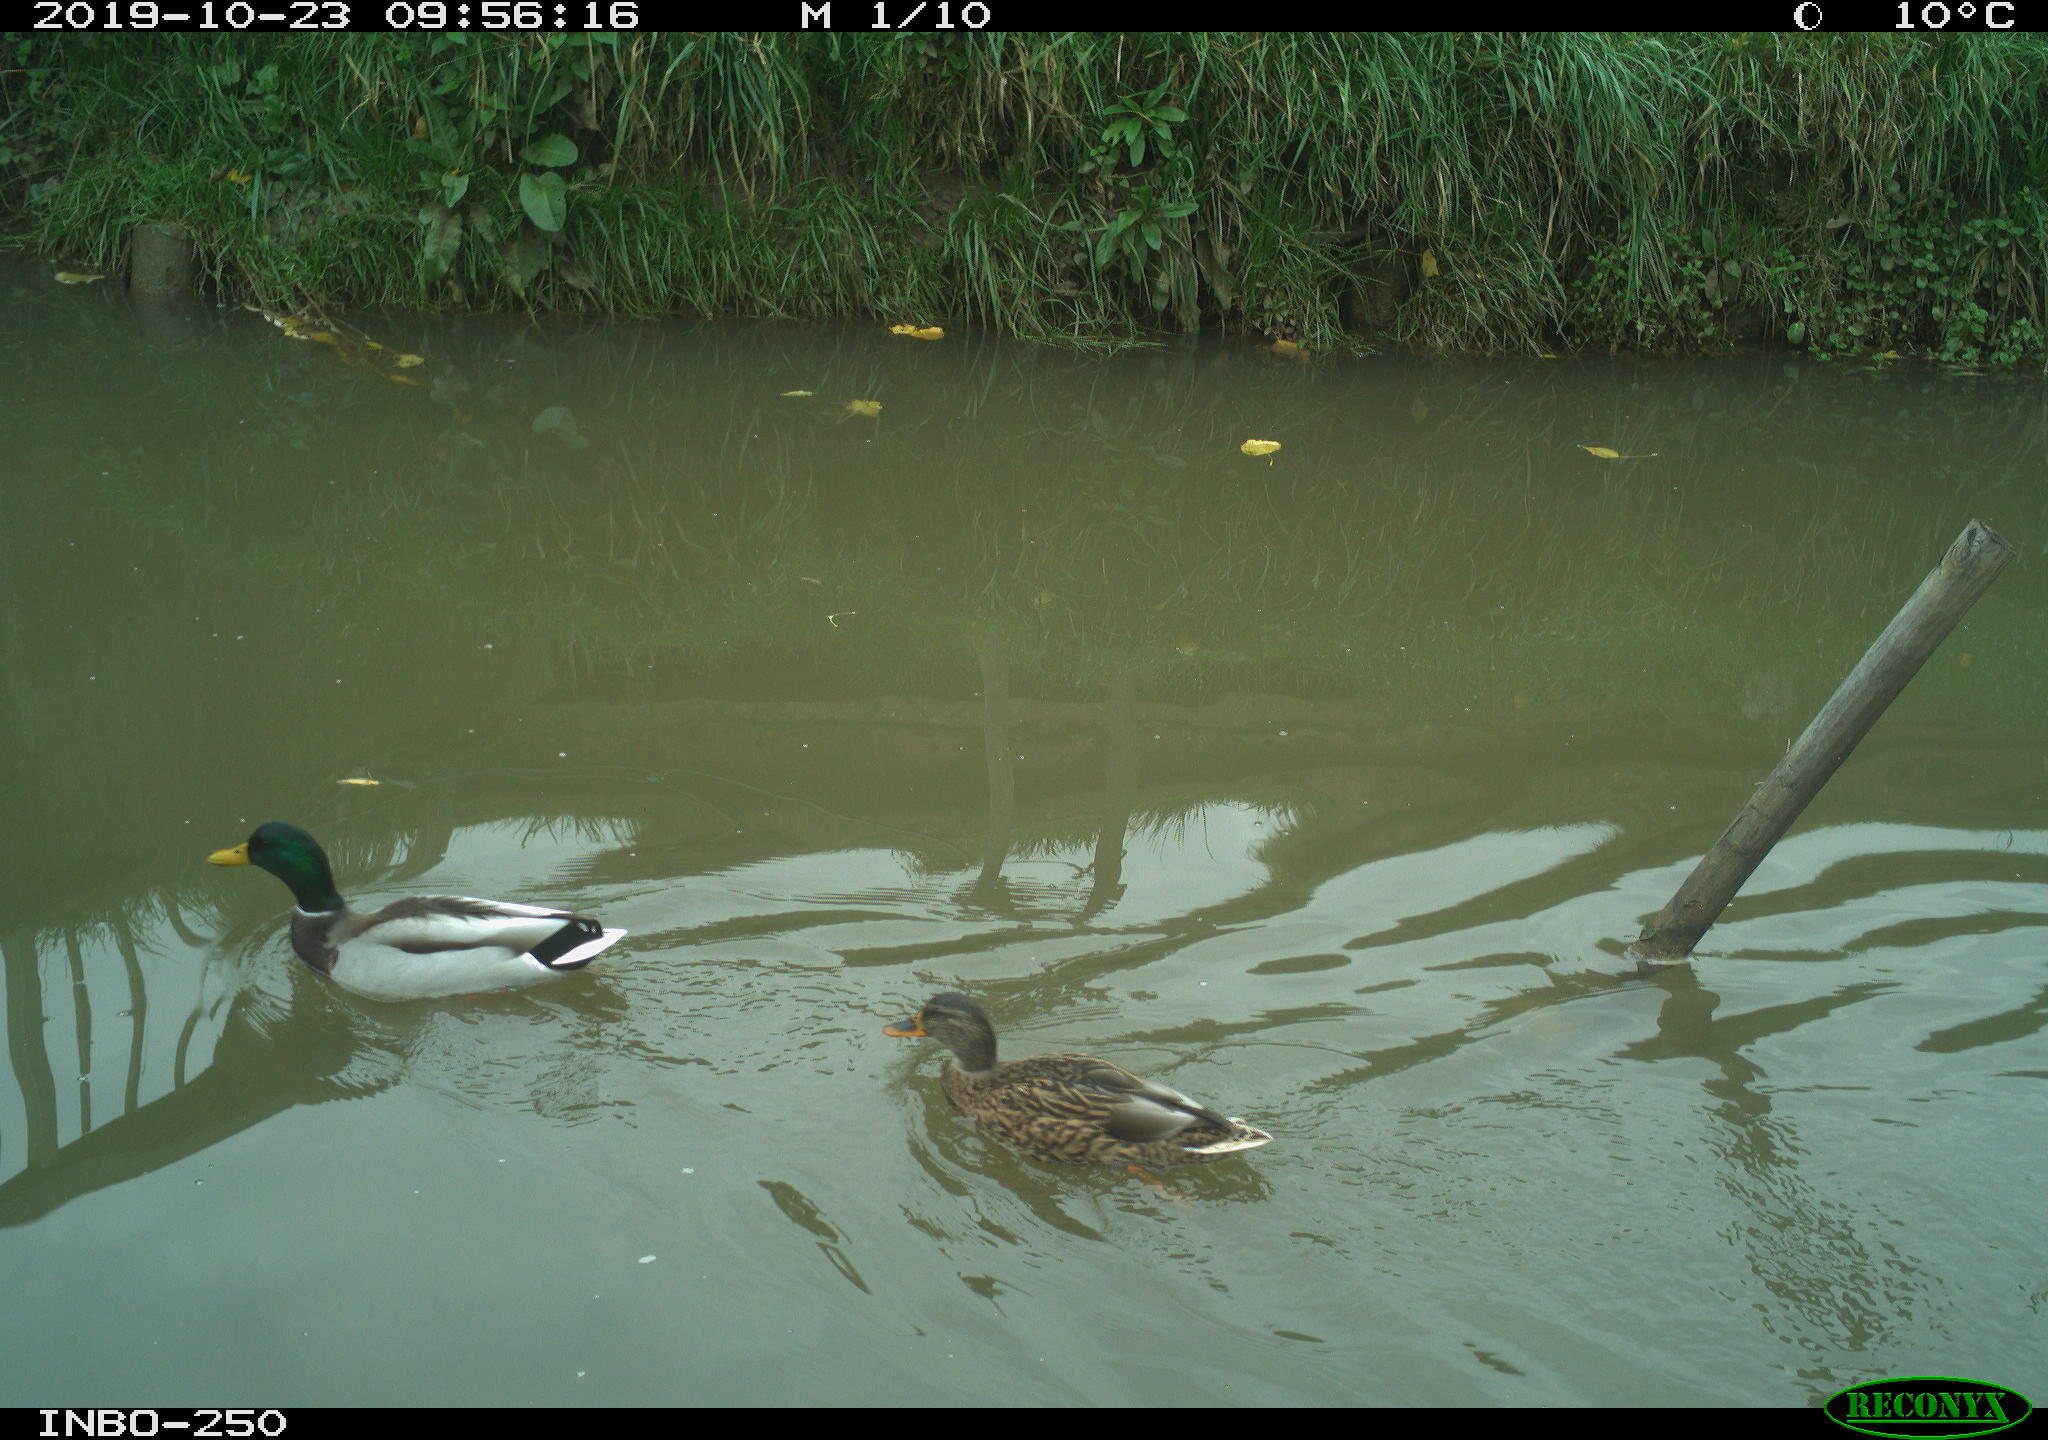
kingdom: Animalia
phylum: Chordata
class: Aves
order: Anseriformes
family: Anatidae
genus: Anas
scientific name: Anas platyrhynchos
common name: Mallard
